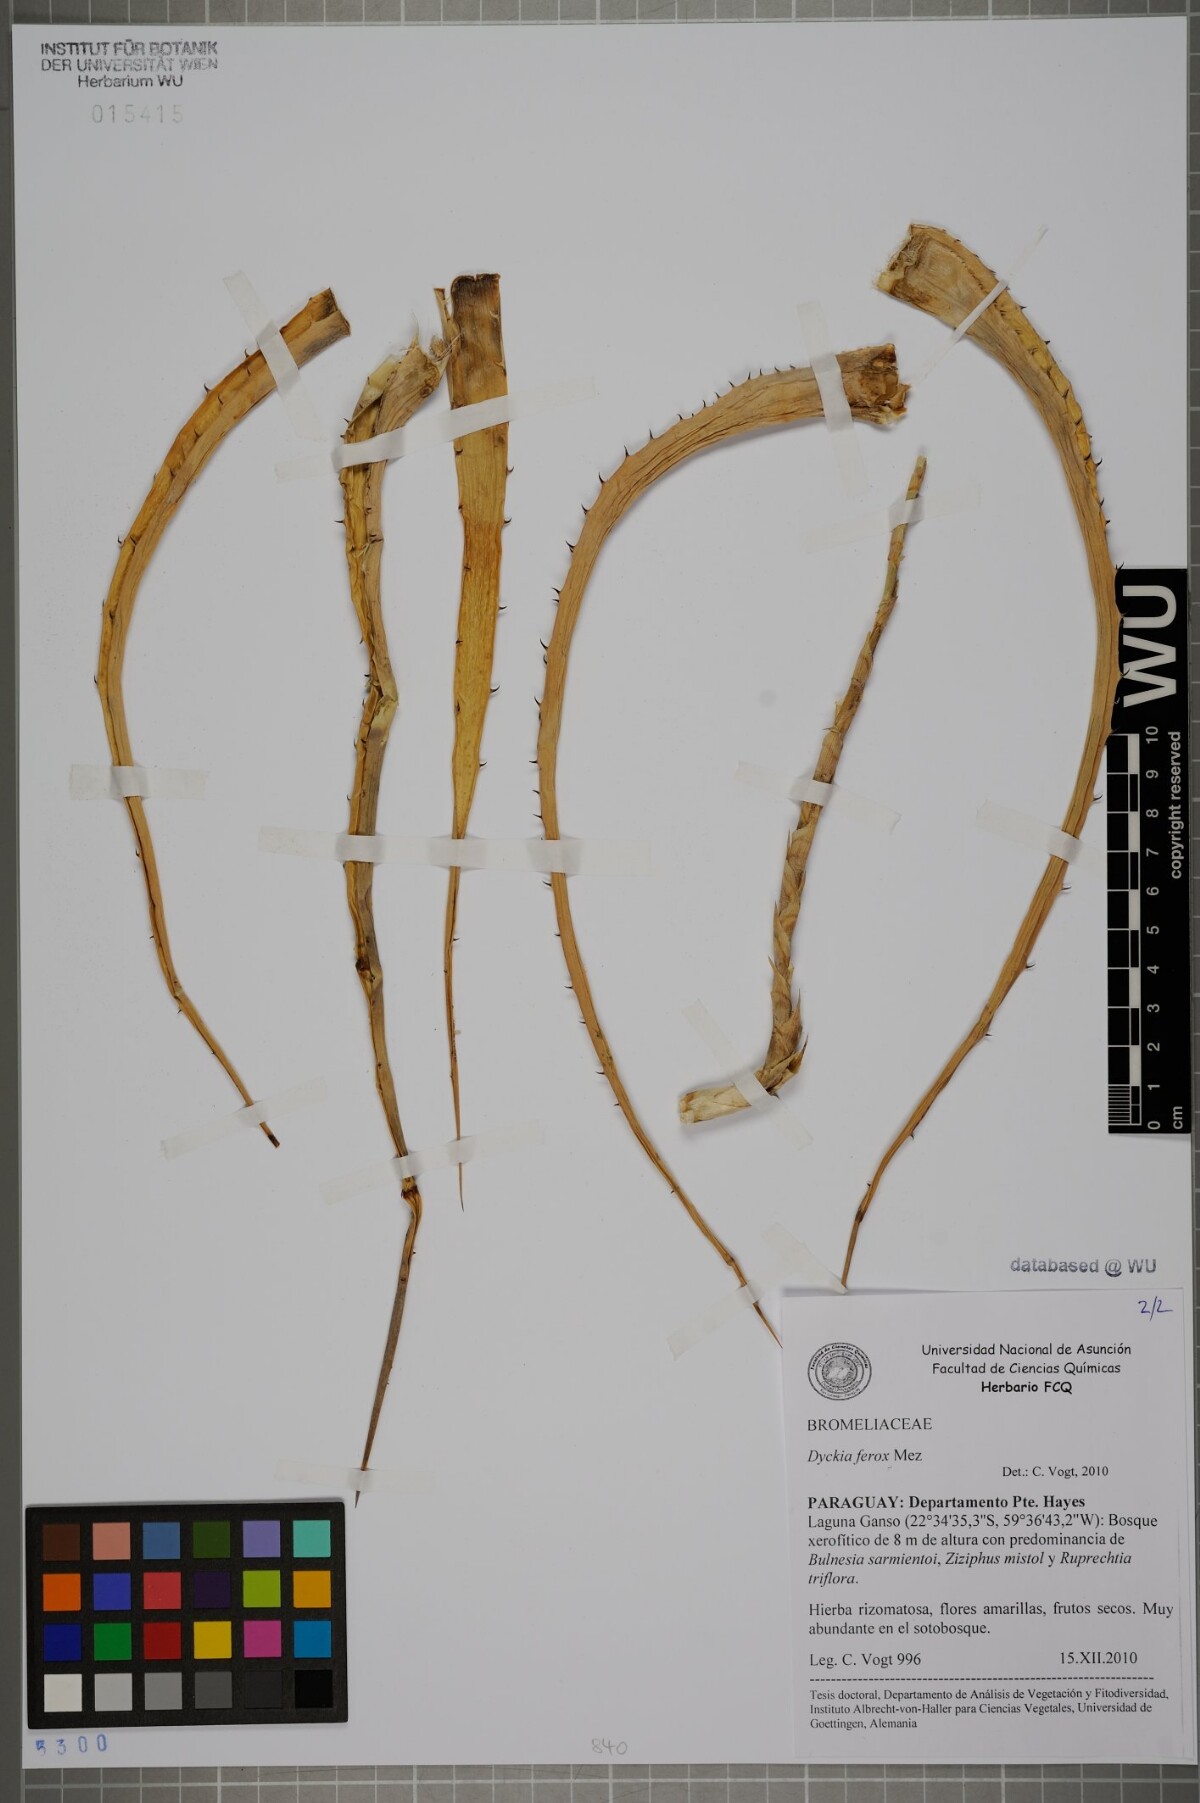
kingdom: Plantae
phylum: Tracheophyta
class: Liliopsida
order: Poales
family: Bromeliaceae
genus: Dyckia
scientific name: Dyckia ferox
